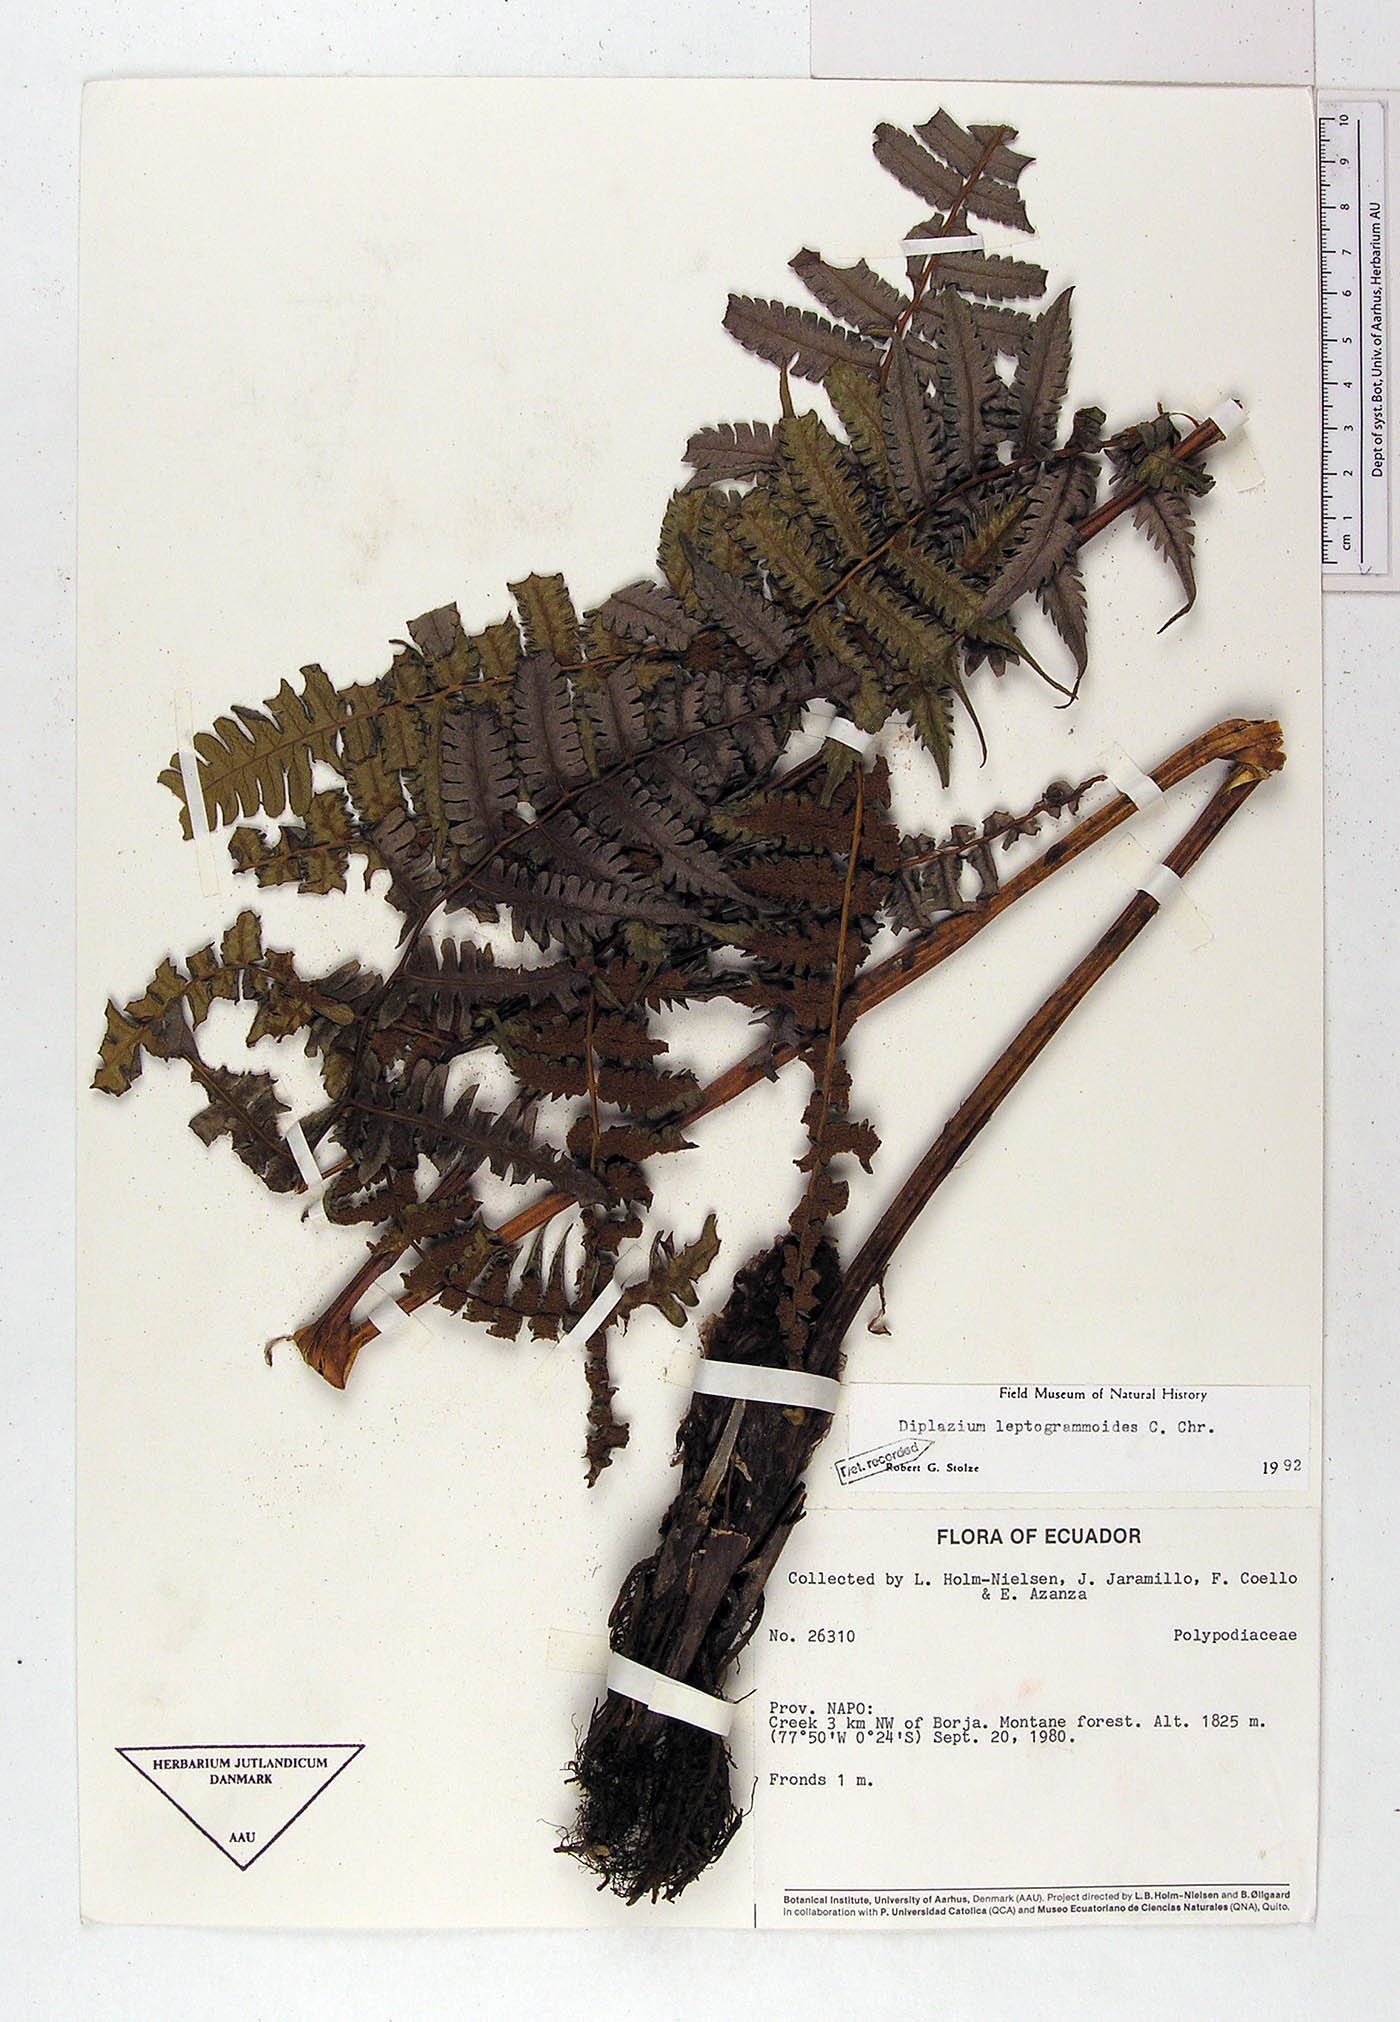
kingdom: Plantae
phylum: Tracheophyta
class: Polypodiopsida
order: Polypodiales
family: Athyriaceae
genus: Diplazium
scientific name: Diplazium leptogrammoides
